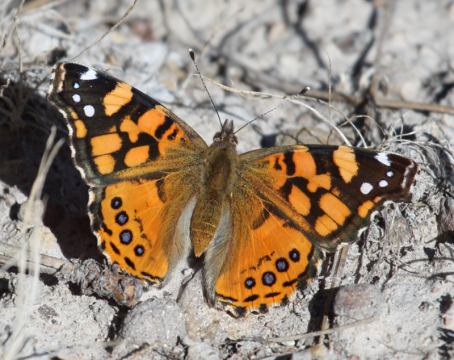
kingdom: Animalia
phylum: Arthropoda
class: Insecta
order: Lepidoptera
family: Nymphalidae
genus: Vanessa
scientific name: Vanessa annabella
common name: West Coast Lady
